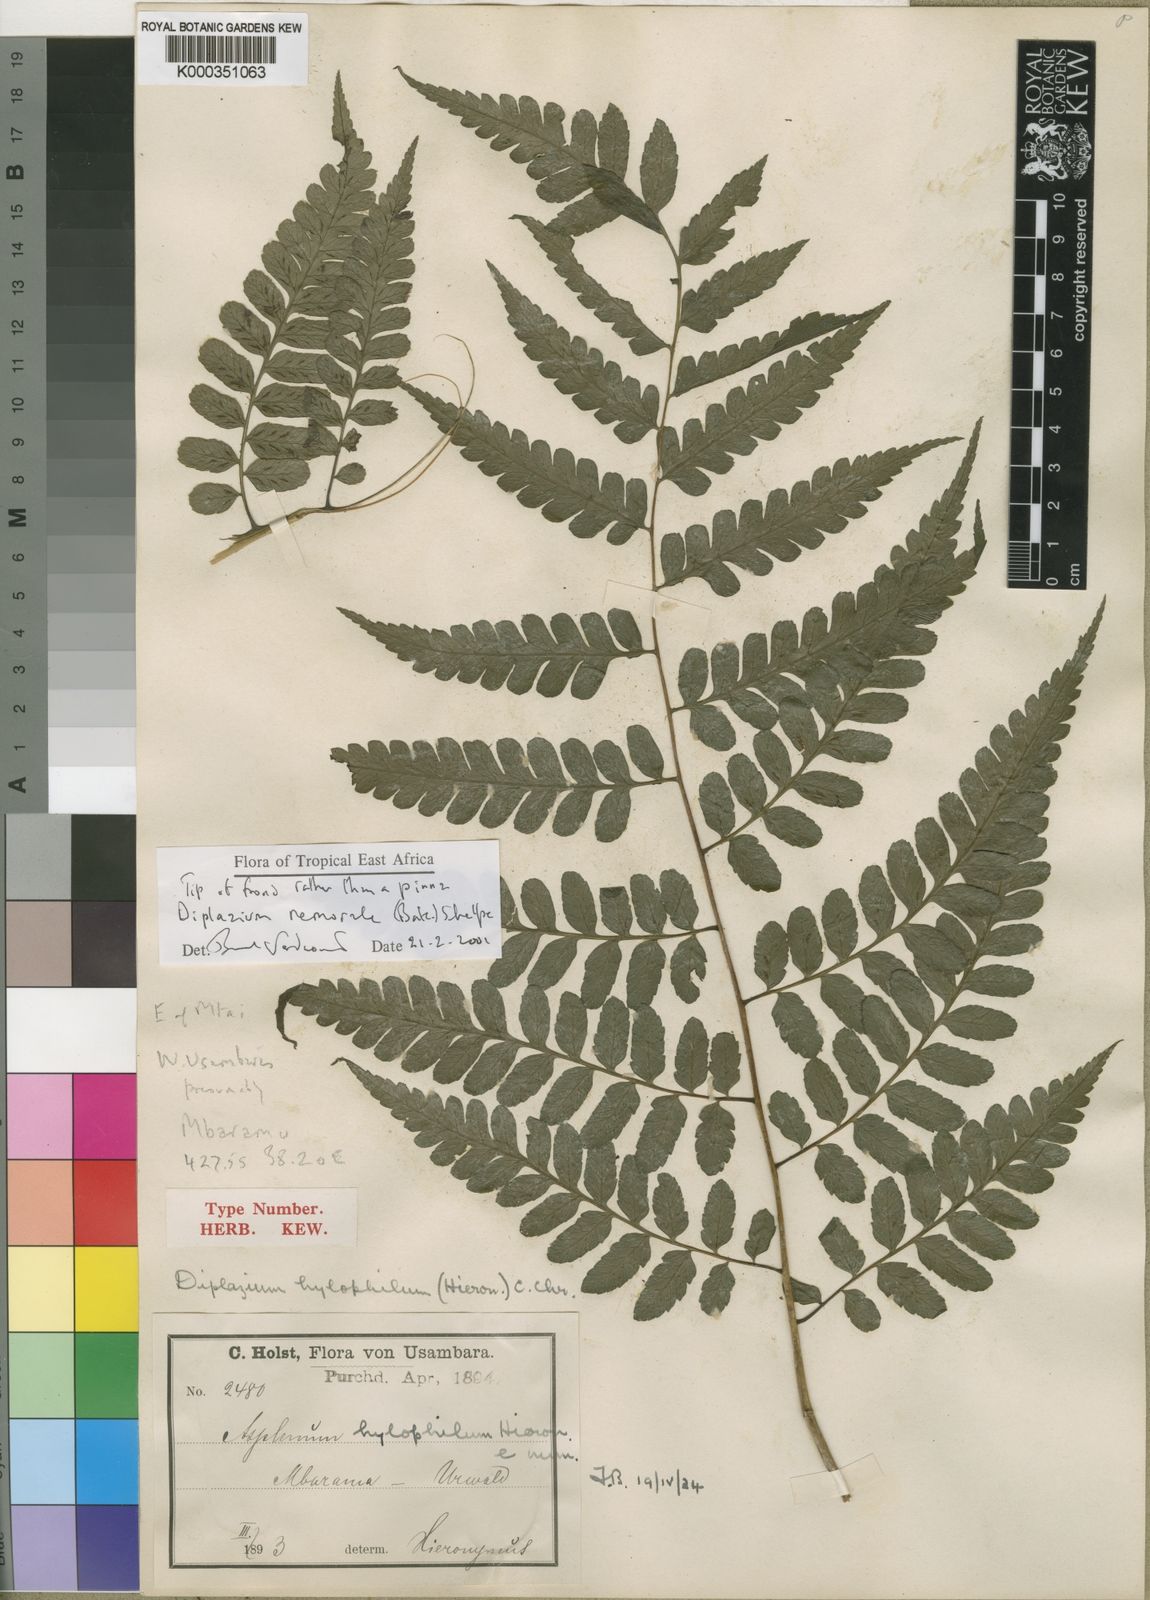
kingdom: Plantae
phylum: Tracheophyta
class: Polypodiopsida
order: Polypodiales
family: Athyriaceae
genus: Diplazium
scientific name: Diplazium nemorale
